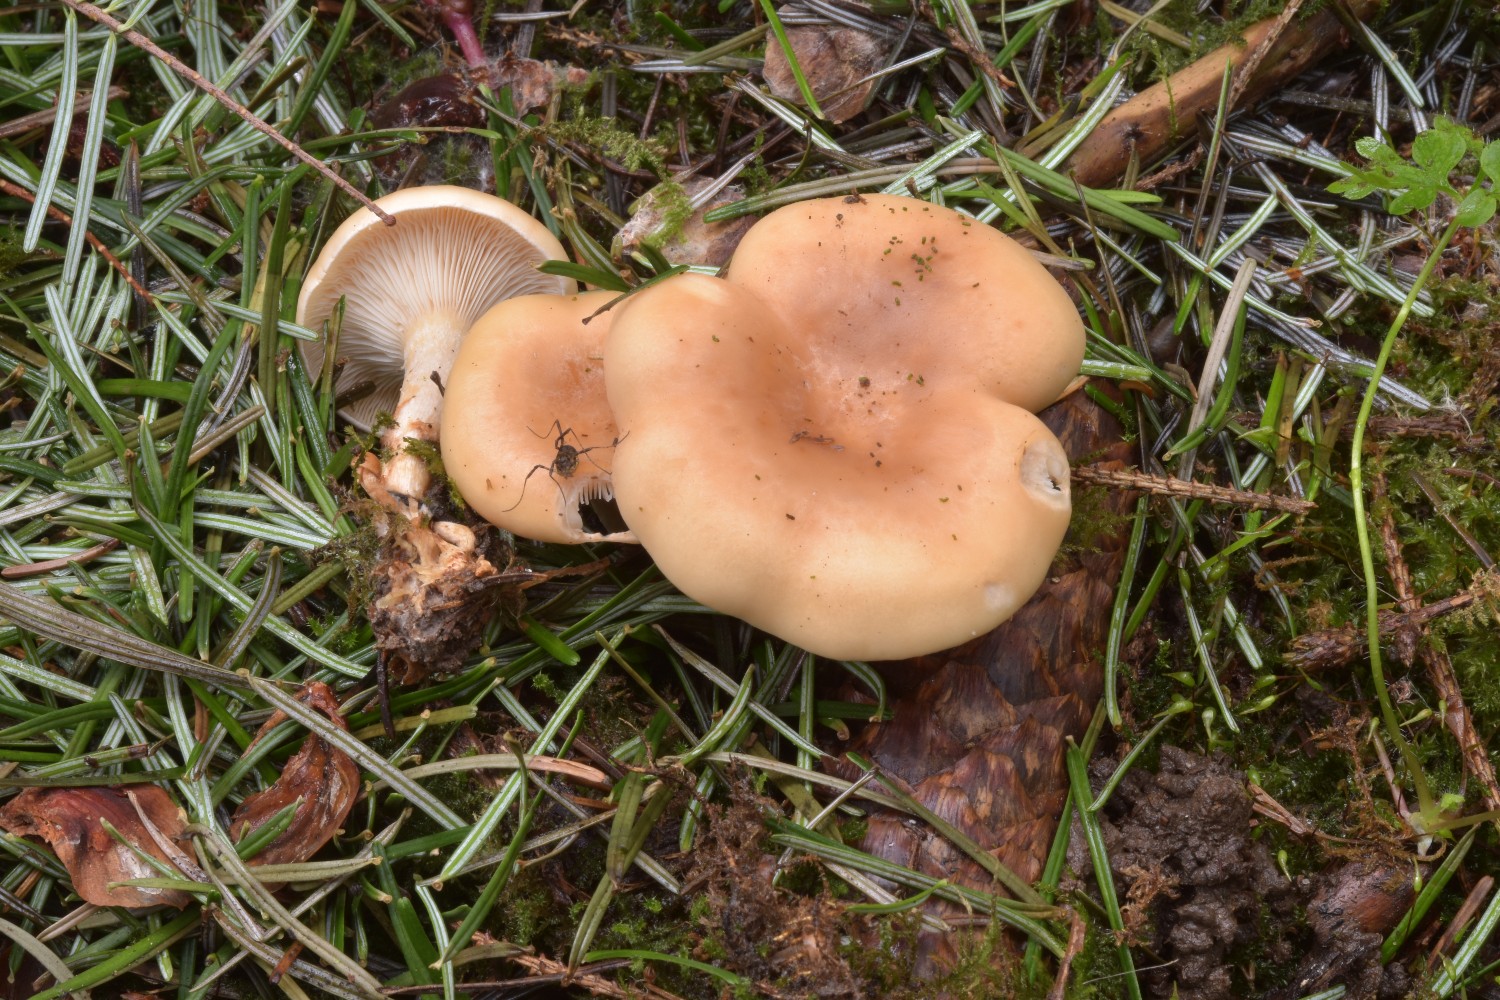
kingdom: Fungi
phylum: Basidiomycota
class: Agaricomycetes
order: Agaricales
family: Tricholomataceae
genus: Paralepista
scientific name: Paralepista flaccida
